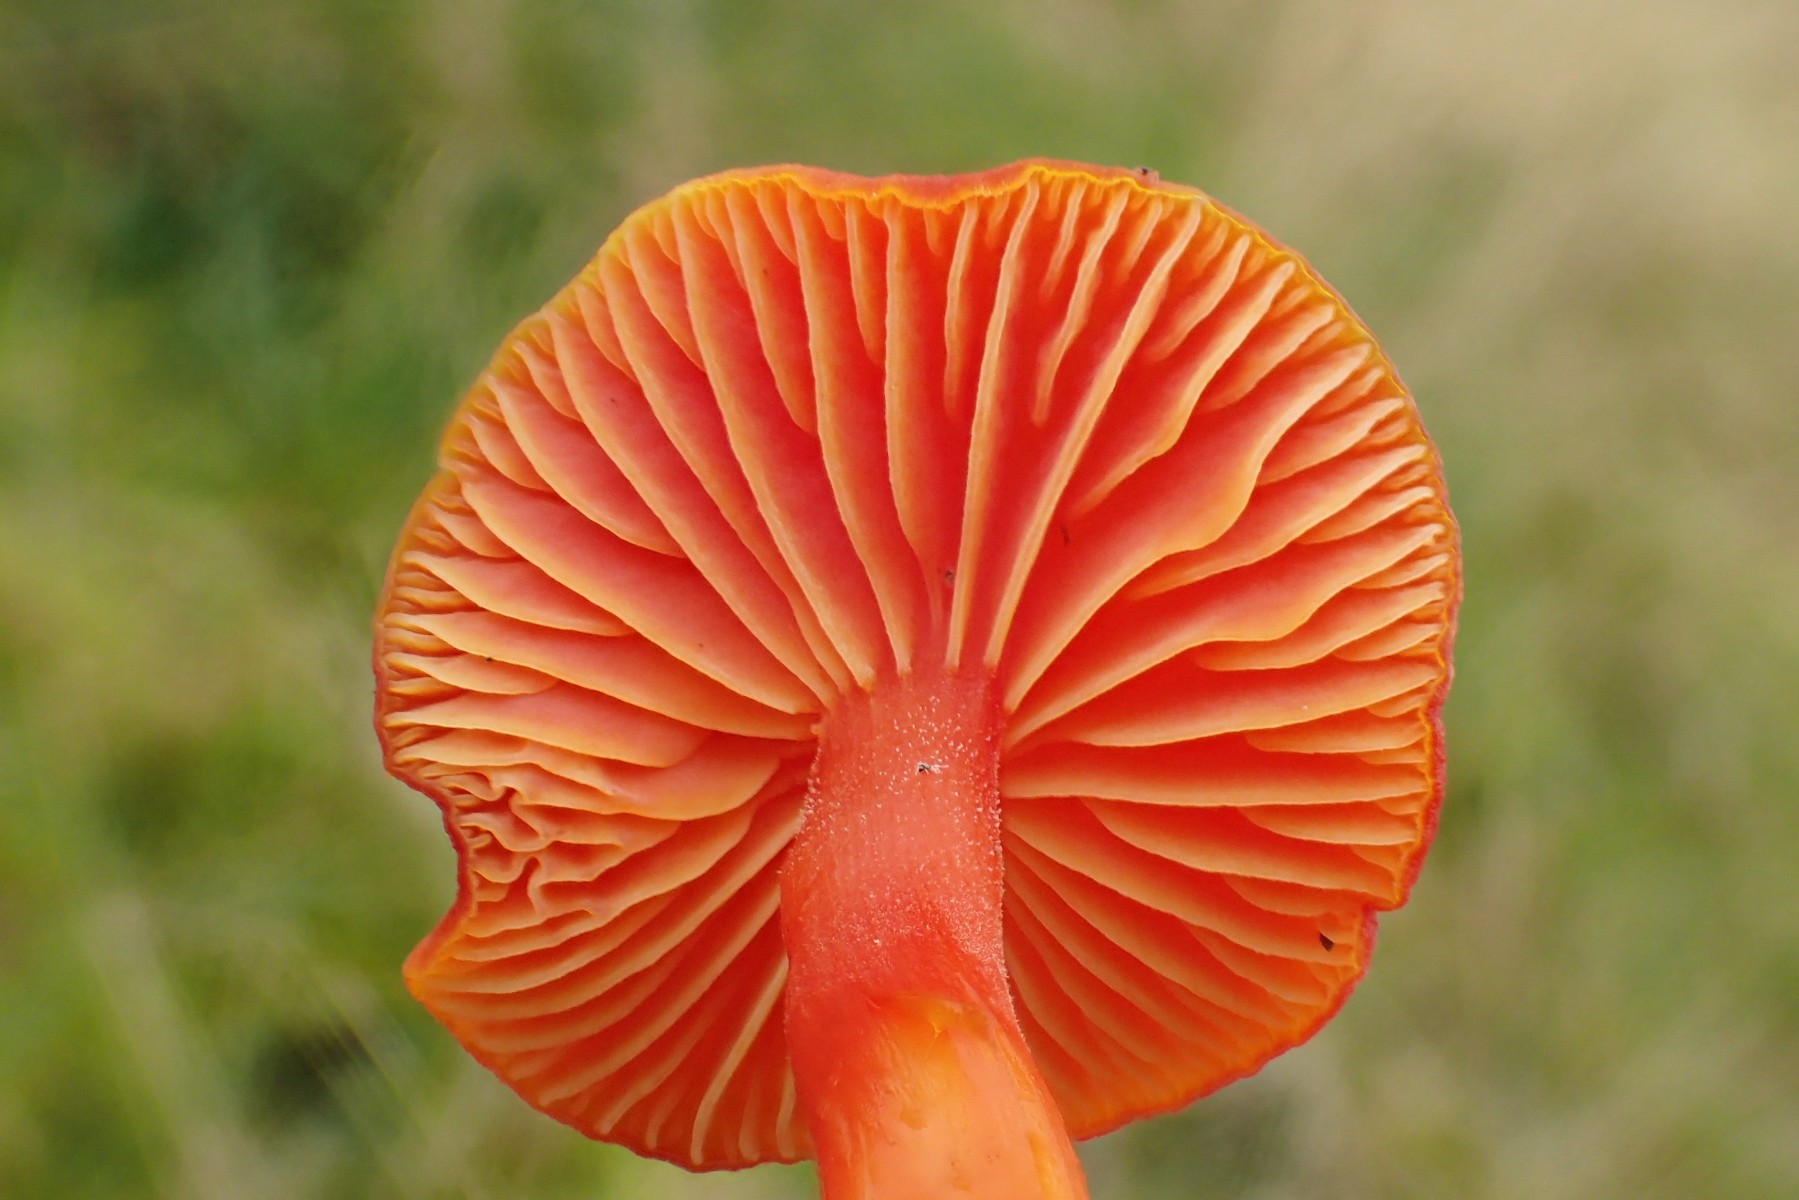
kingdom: Fungi
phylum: Basidiomycota
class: Agaricomycetes
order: Agaricales
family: Hygrophoraceae
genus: Hygrocybe
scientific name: Hygrocybe miniata
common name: mønje-vokshat
